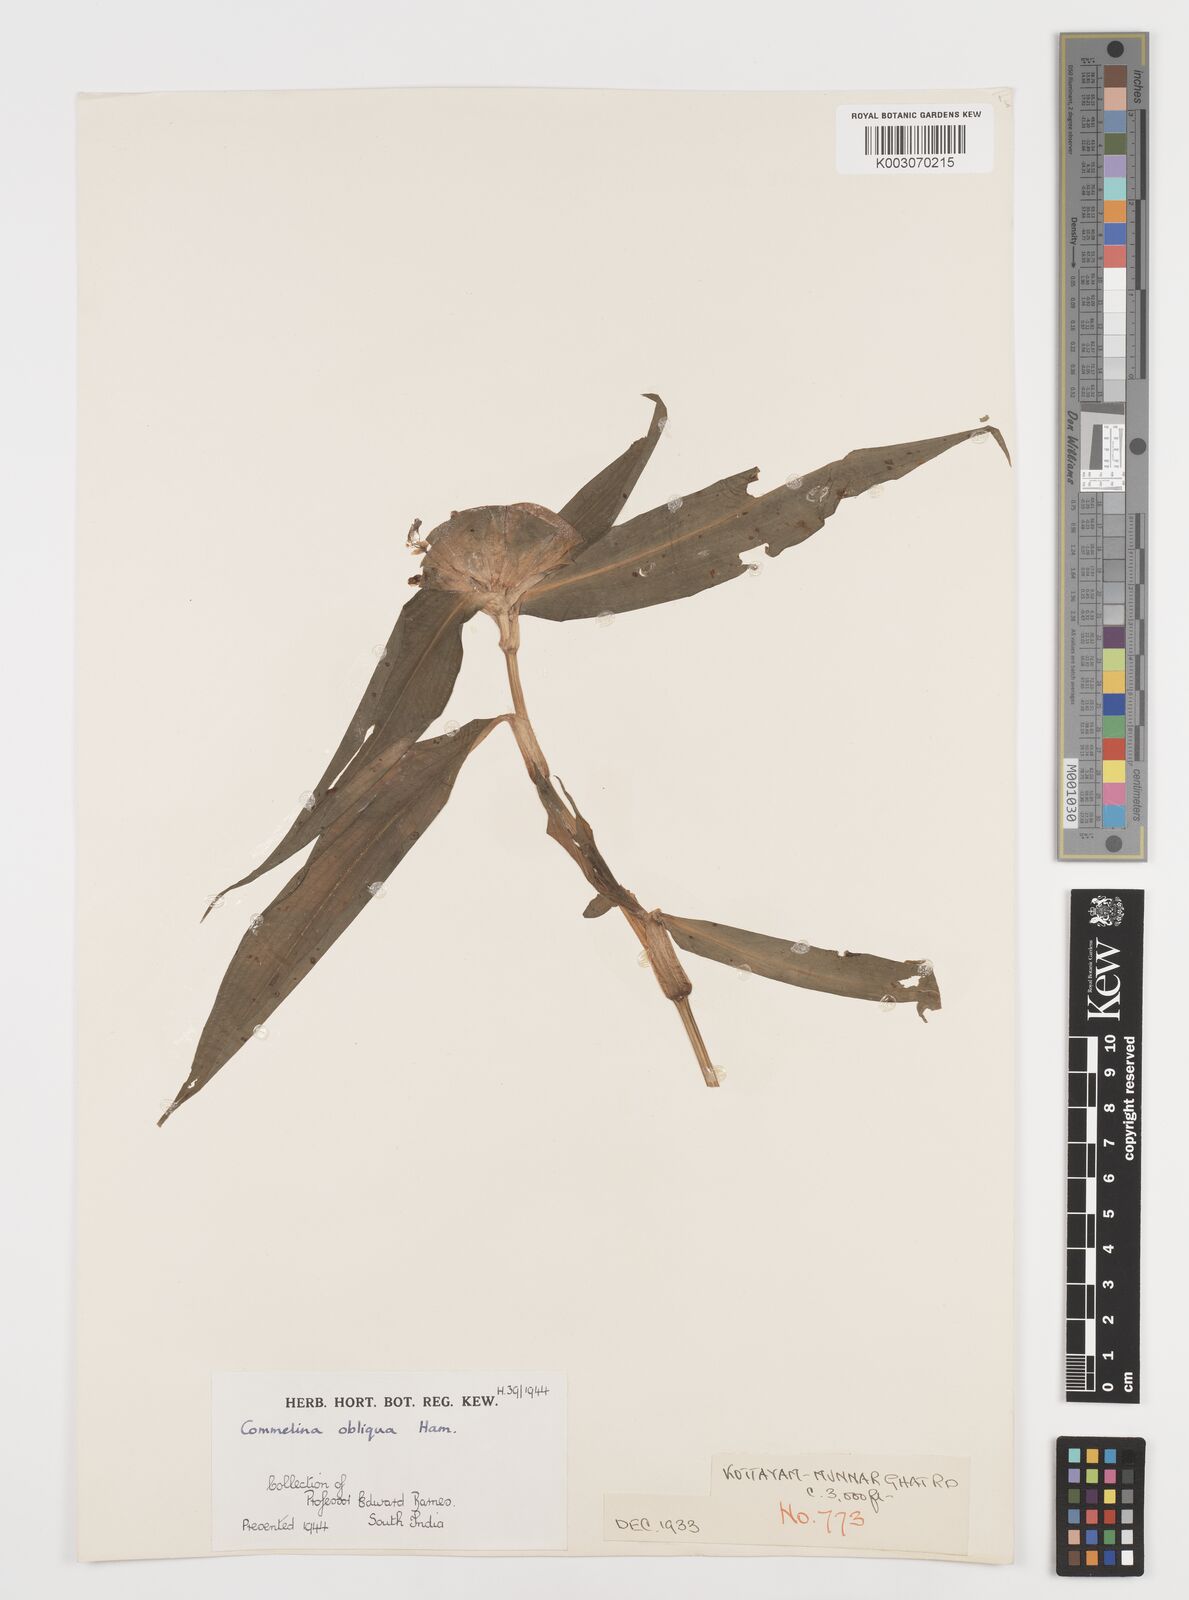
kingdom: Plantae
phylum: Tracheophyta
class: Liliopsida
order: Commelinales
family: Commelinaceae
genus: Commelina
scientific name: Commelina paludosa
